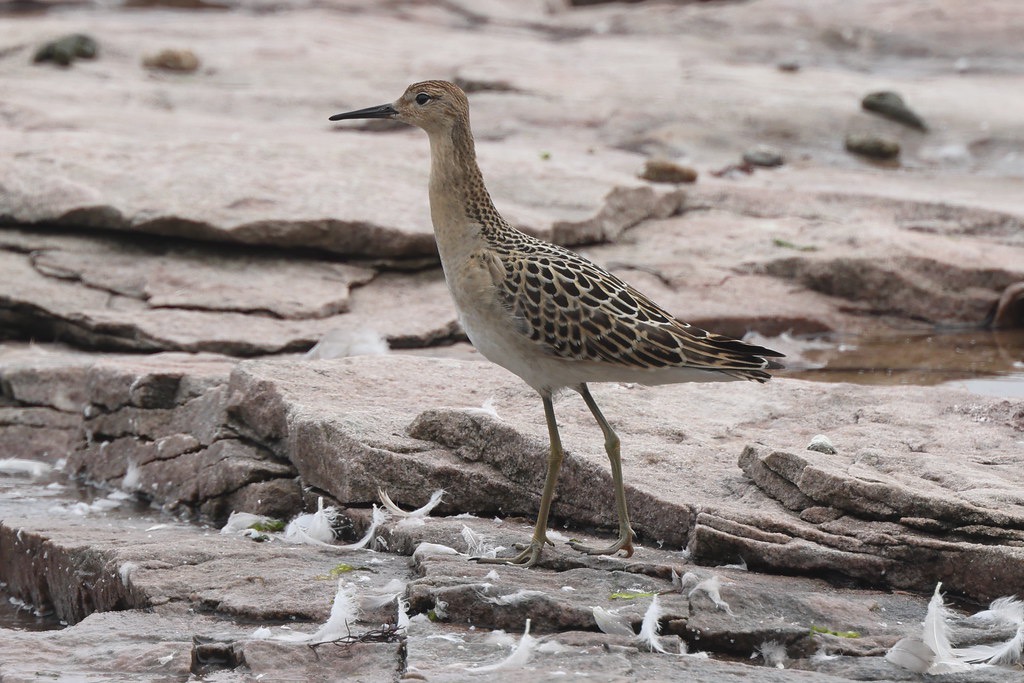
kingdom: Animalia
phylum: Chordata
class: Aves
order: Charadriiformes
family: Scolopacidae
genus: Calidris
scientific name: Calidris pugnax
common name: Brushane
